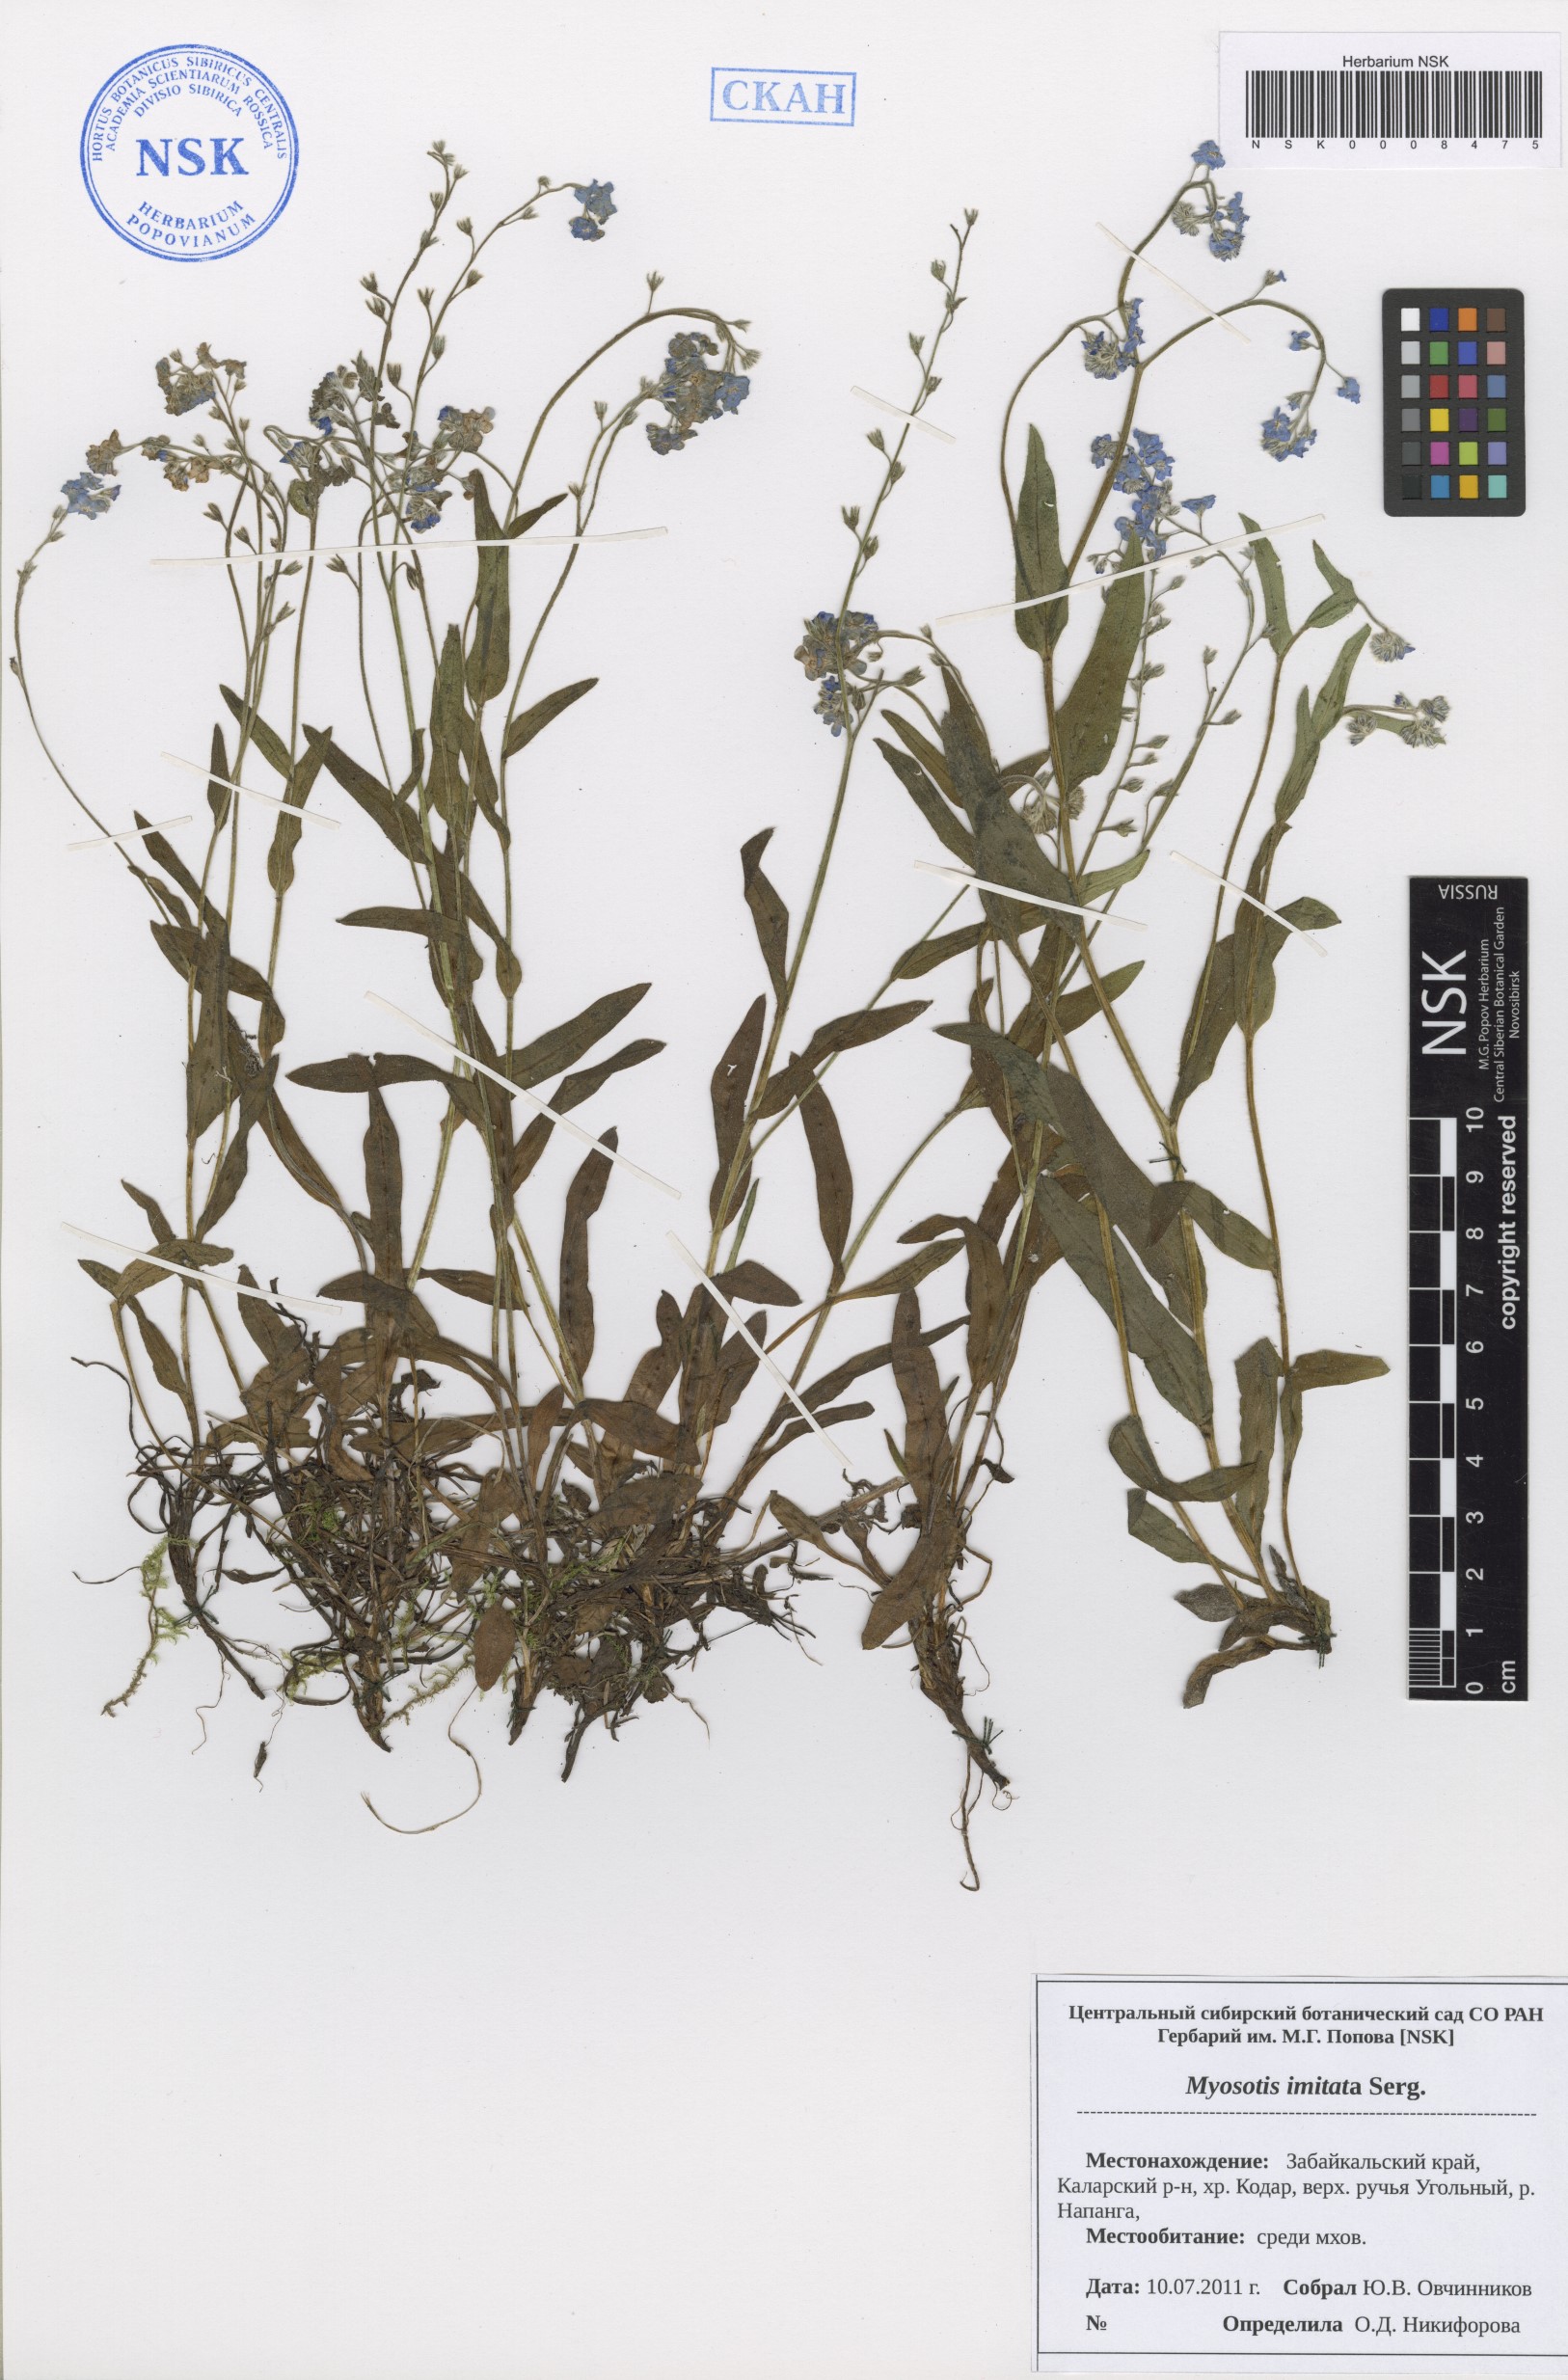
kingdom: Plantae
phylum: Tracheophyta
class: Magnoliopsida
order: Boraginales
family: Boraginaceae
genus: Myosotis
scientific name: Myosotis imitata
